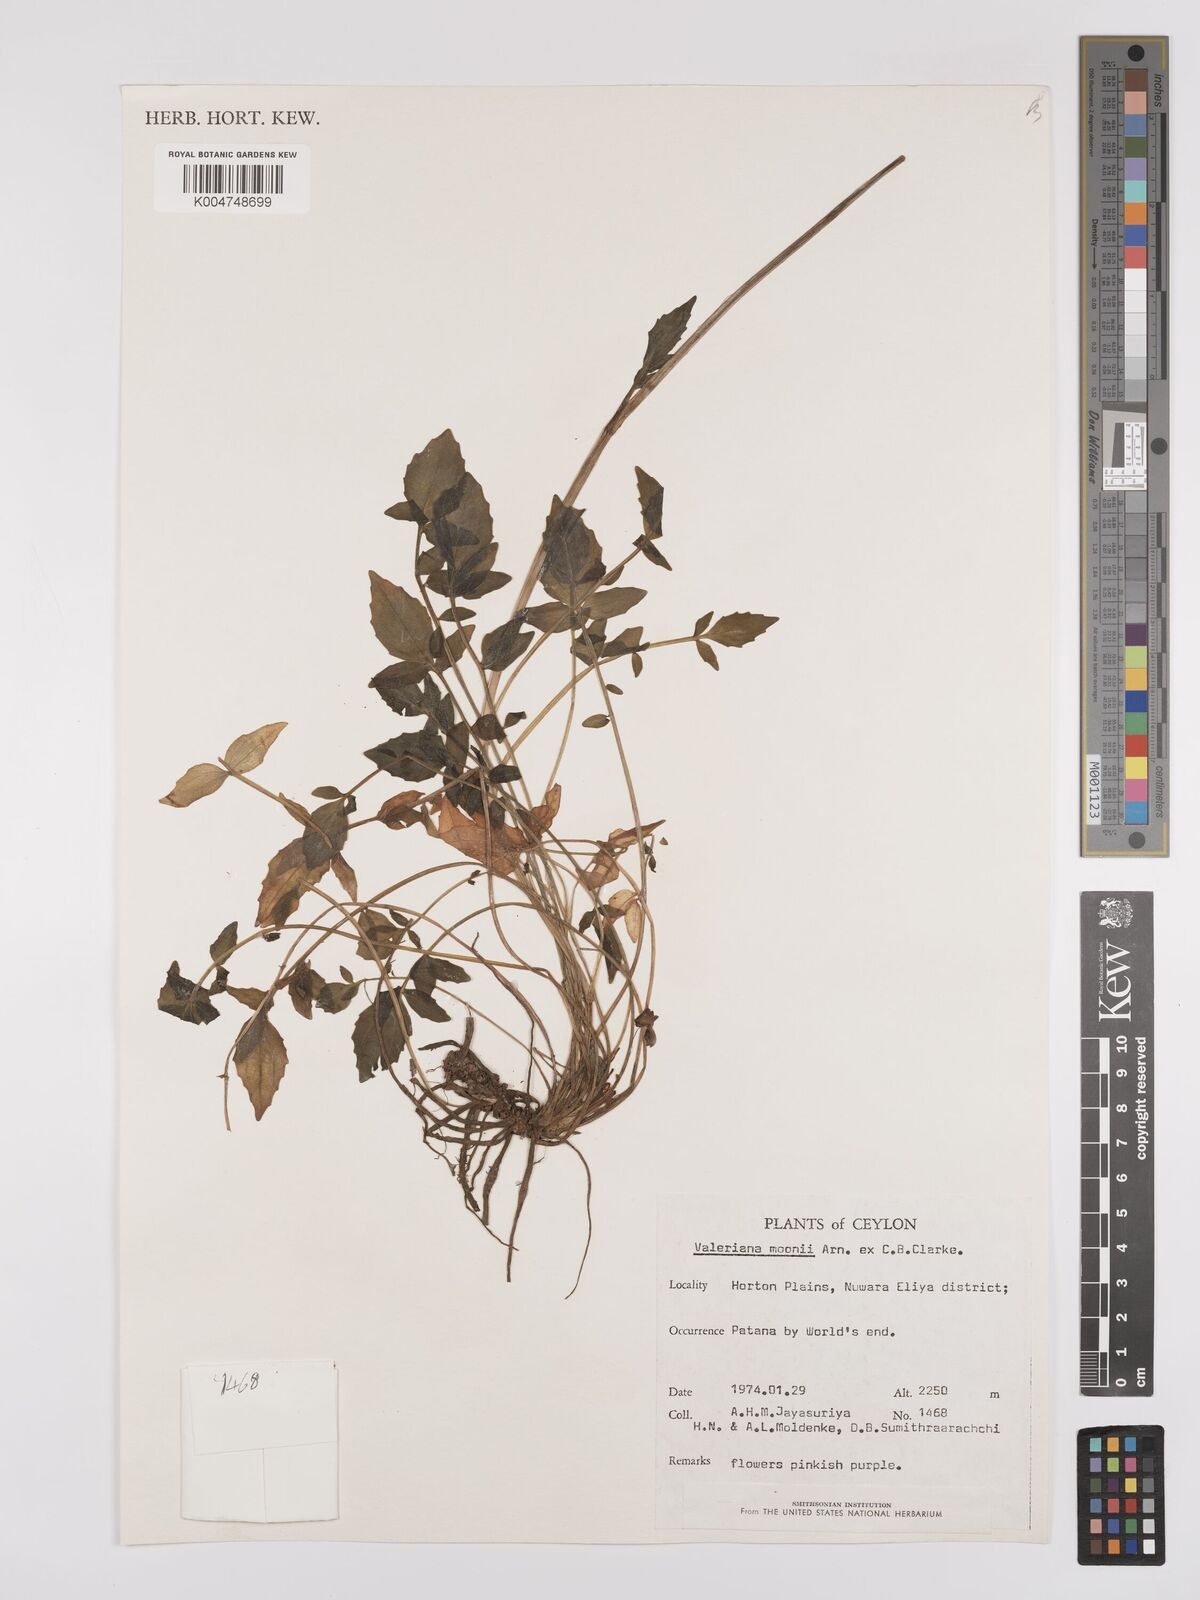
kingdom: Plantae
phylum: Tracheophyta
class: Magnoliopsida
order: Dipsacales
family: Caprifoliaceae
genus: Valeriana
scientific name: Valeriana moonii
